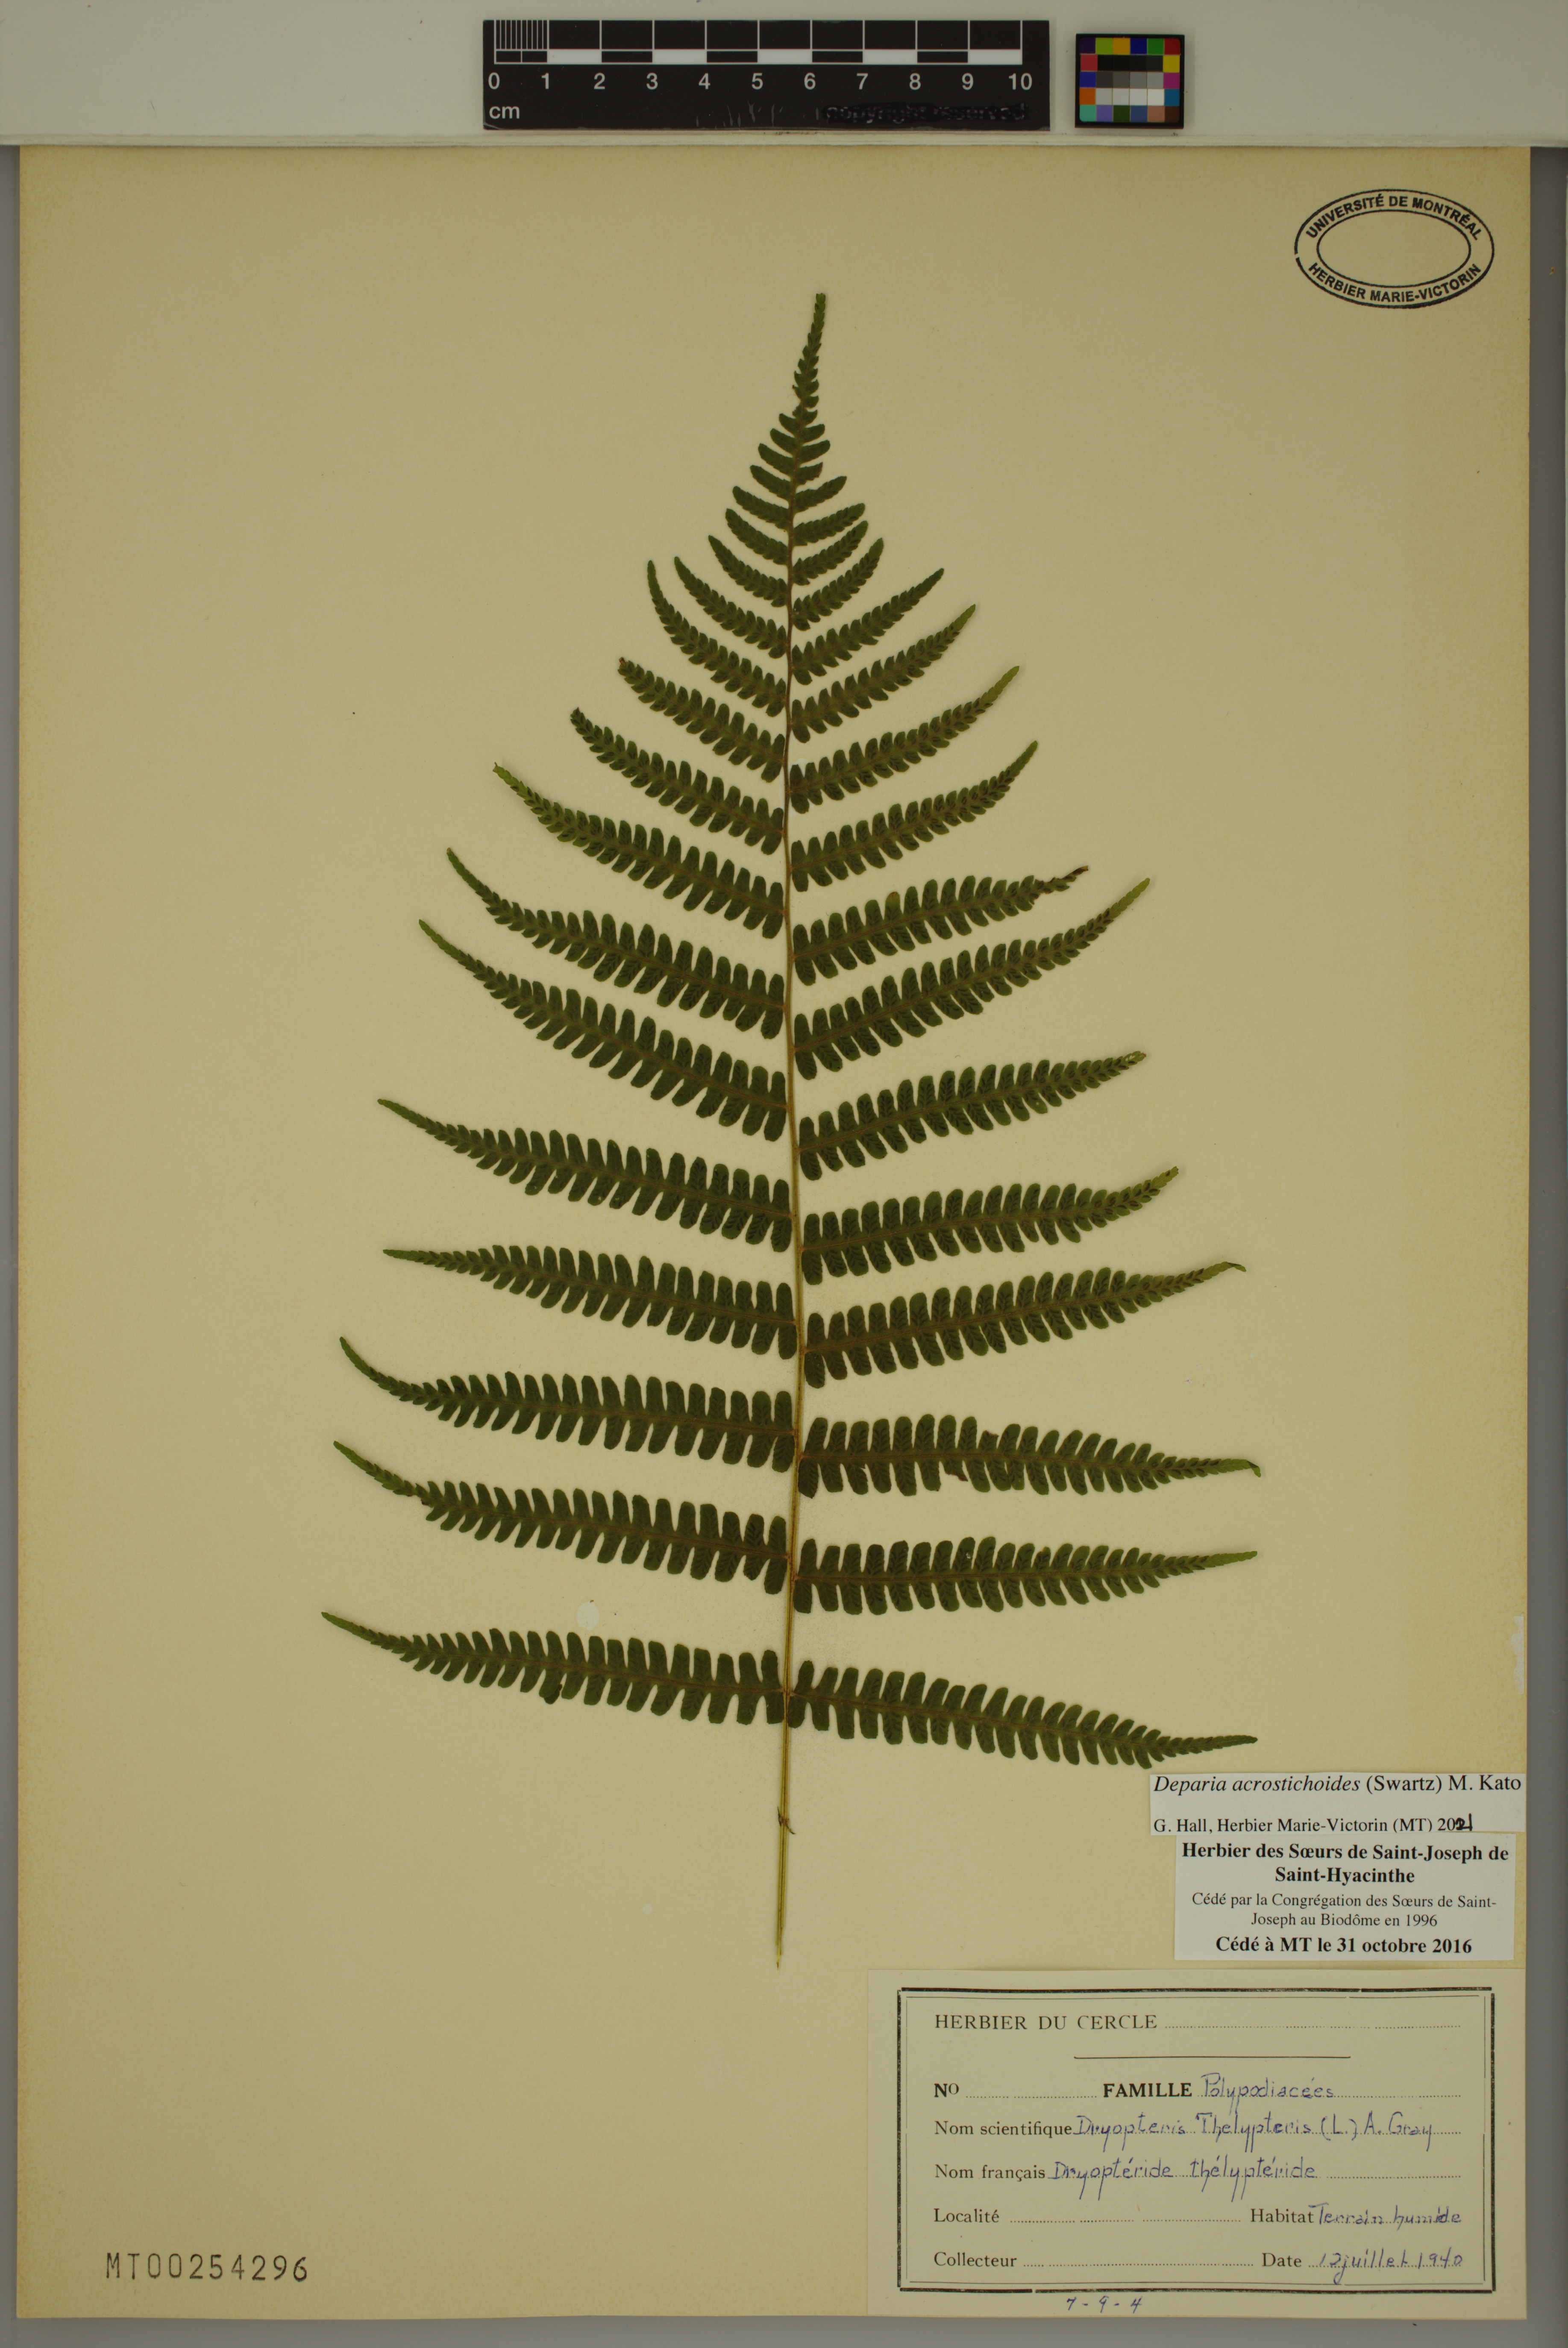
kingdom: Plantae
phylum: Tracheophyta
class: Polypodiopsida
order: Polypodiales
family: Athyriaceae
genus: Deparia
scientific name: Deparia acrostichoides
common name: Silver false spleenwort
